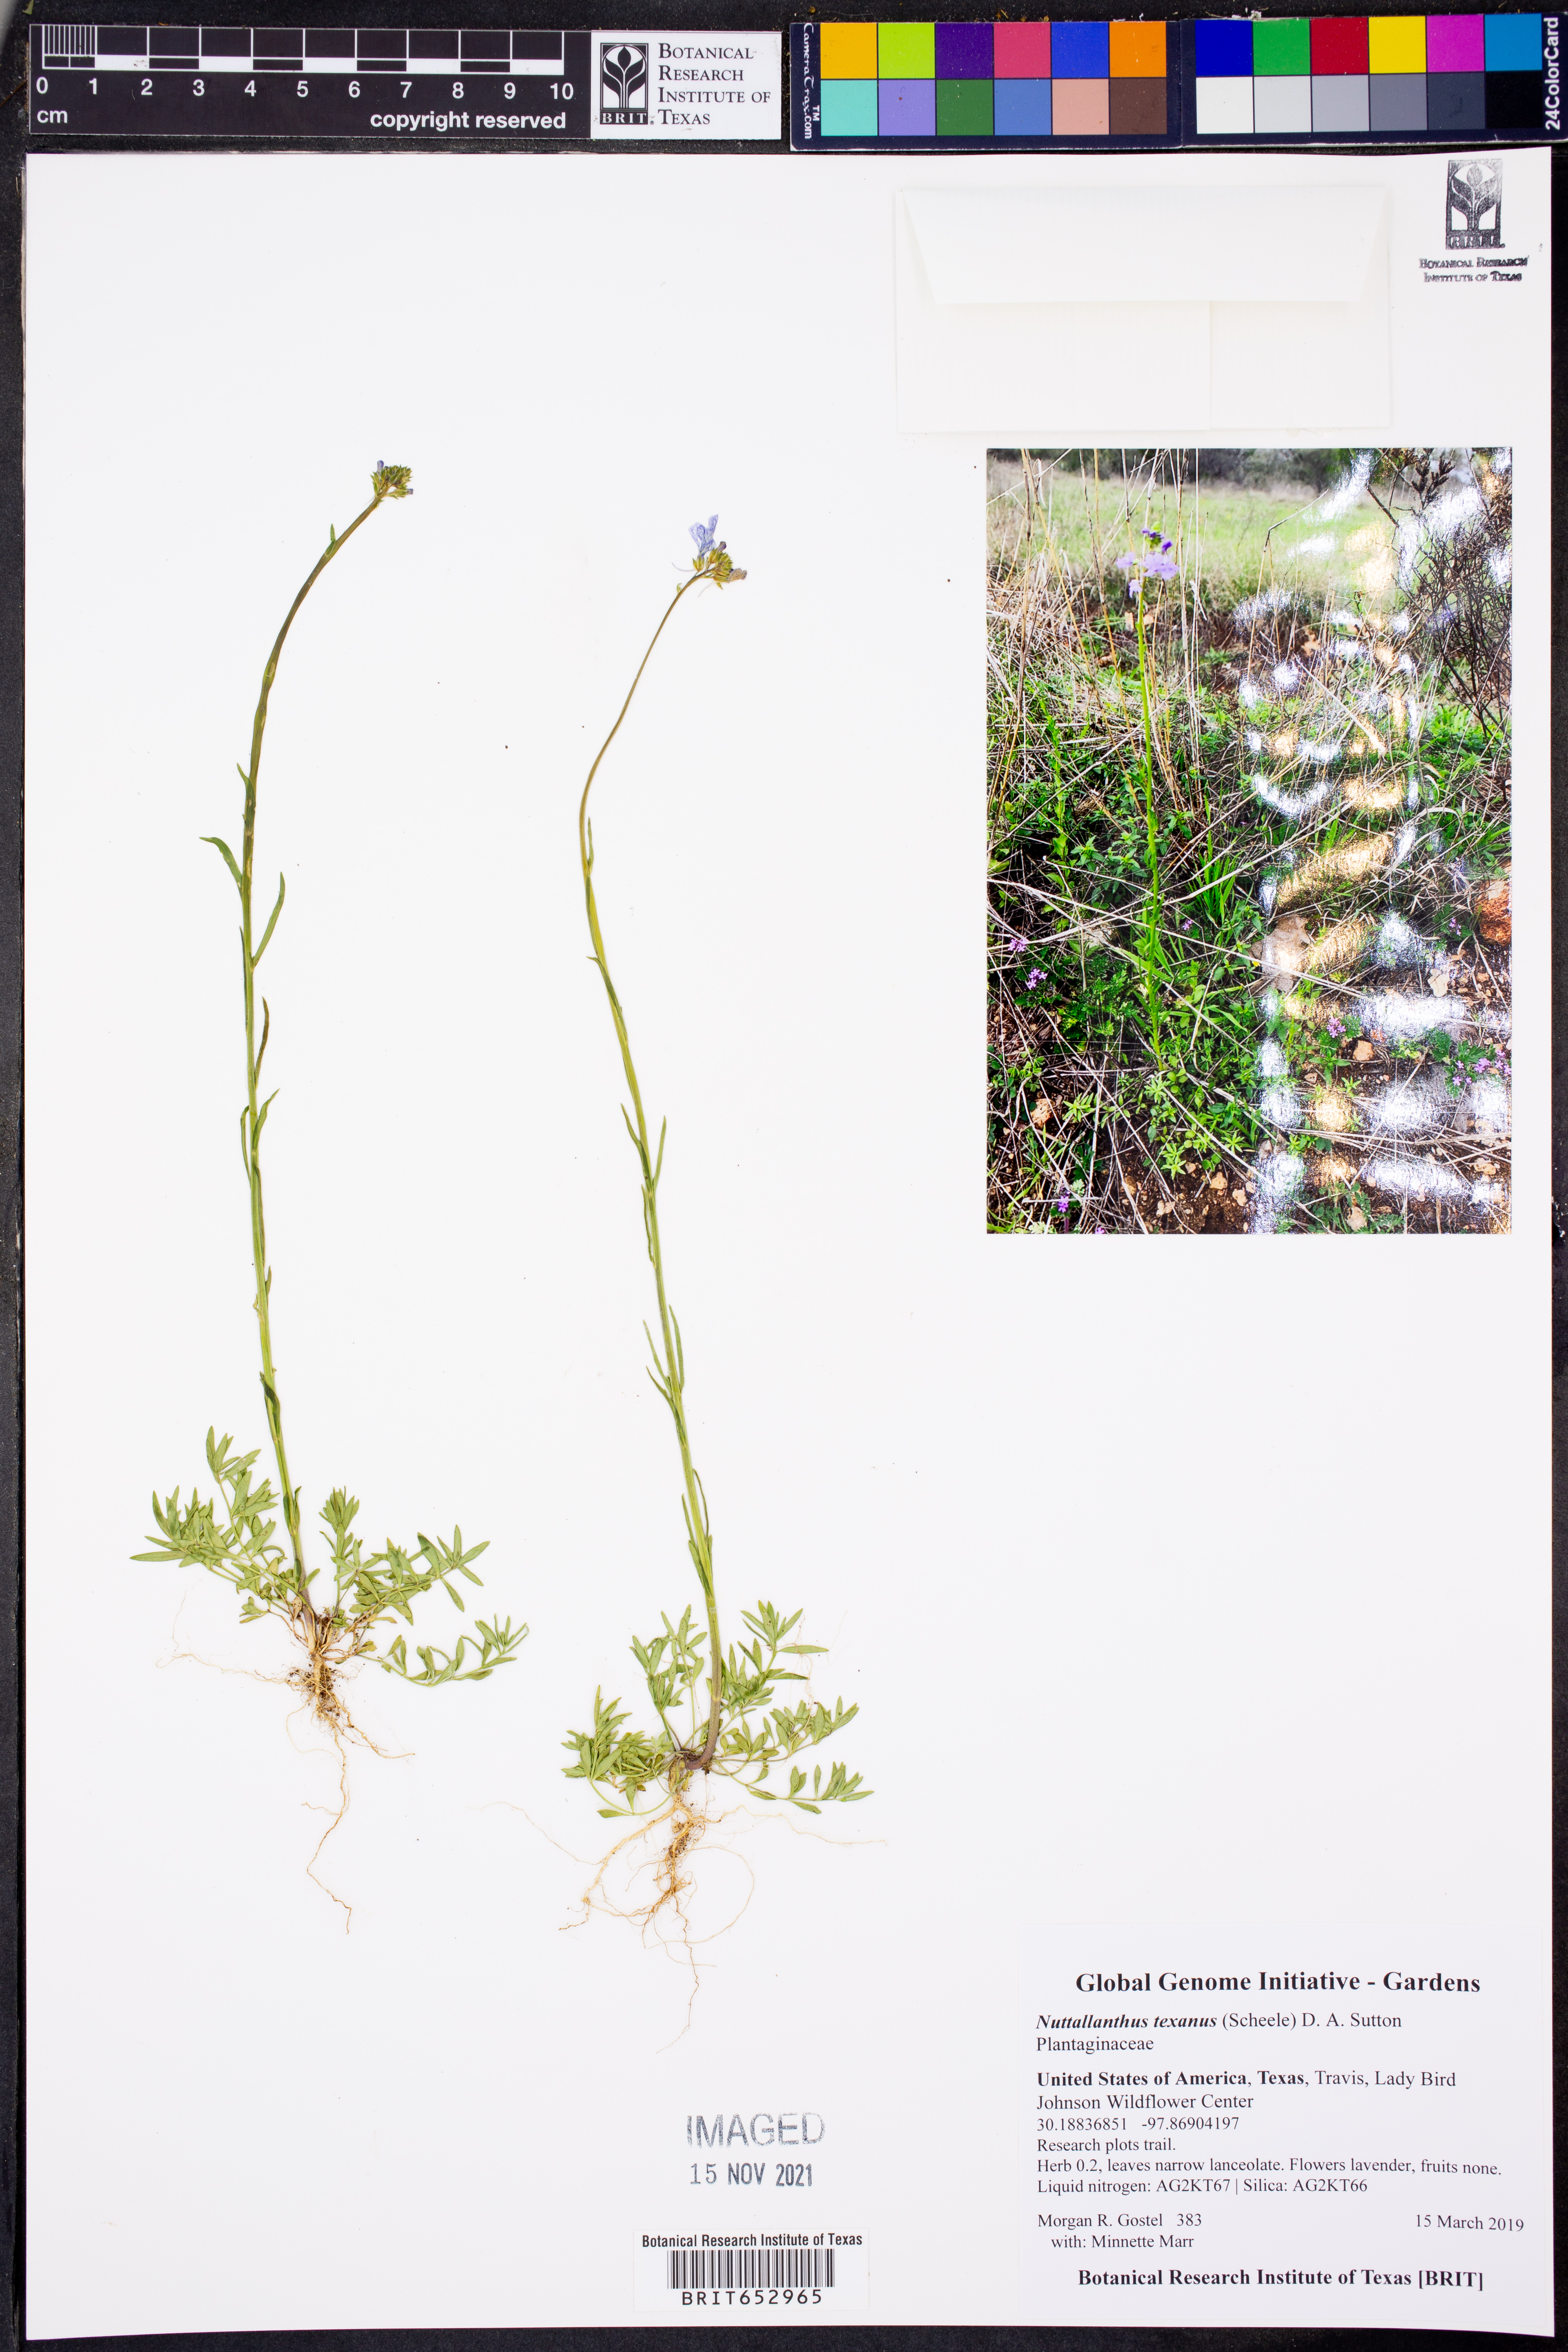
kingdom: Plantae
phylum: Tracheophyta
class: Magnoliopsida
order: Lamiales
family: Plantaginaceae
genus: Nuttallanthus
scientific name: Nuttallanthus texanus
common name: Texas toadflax
